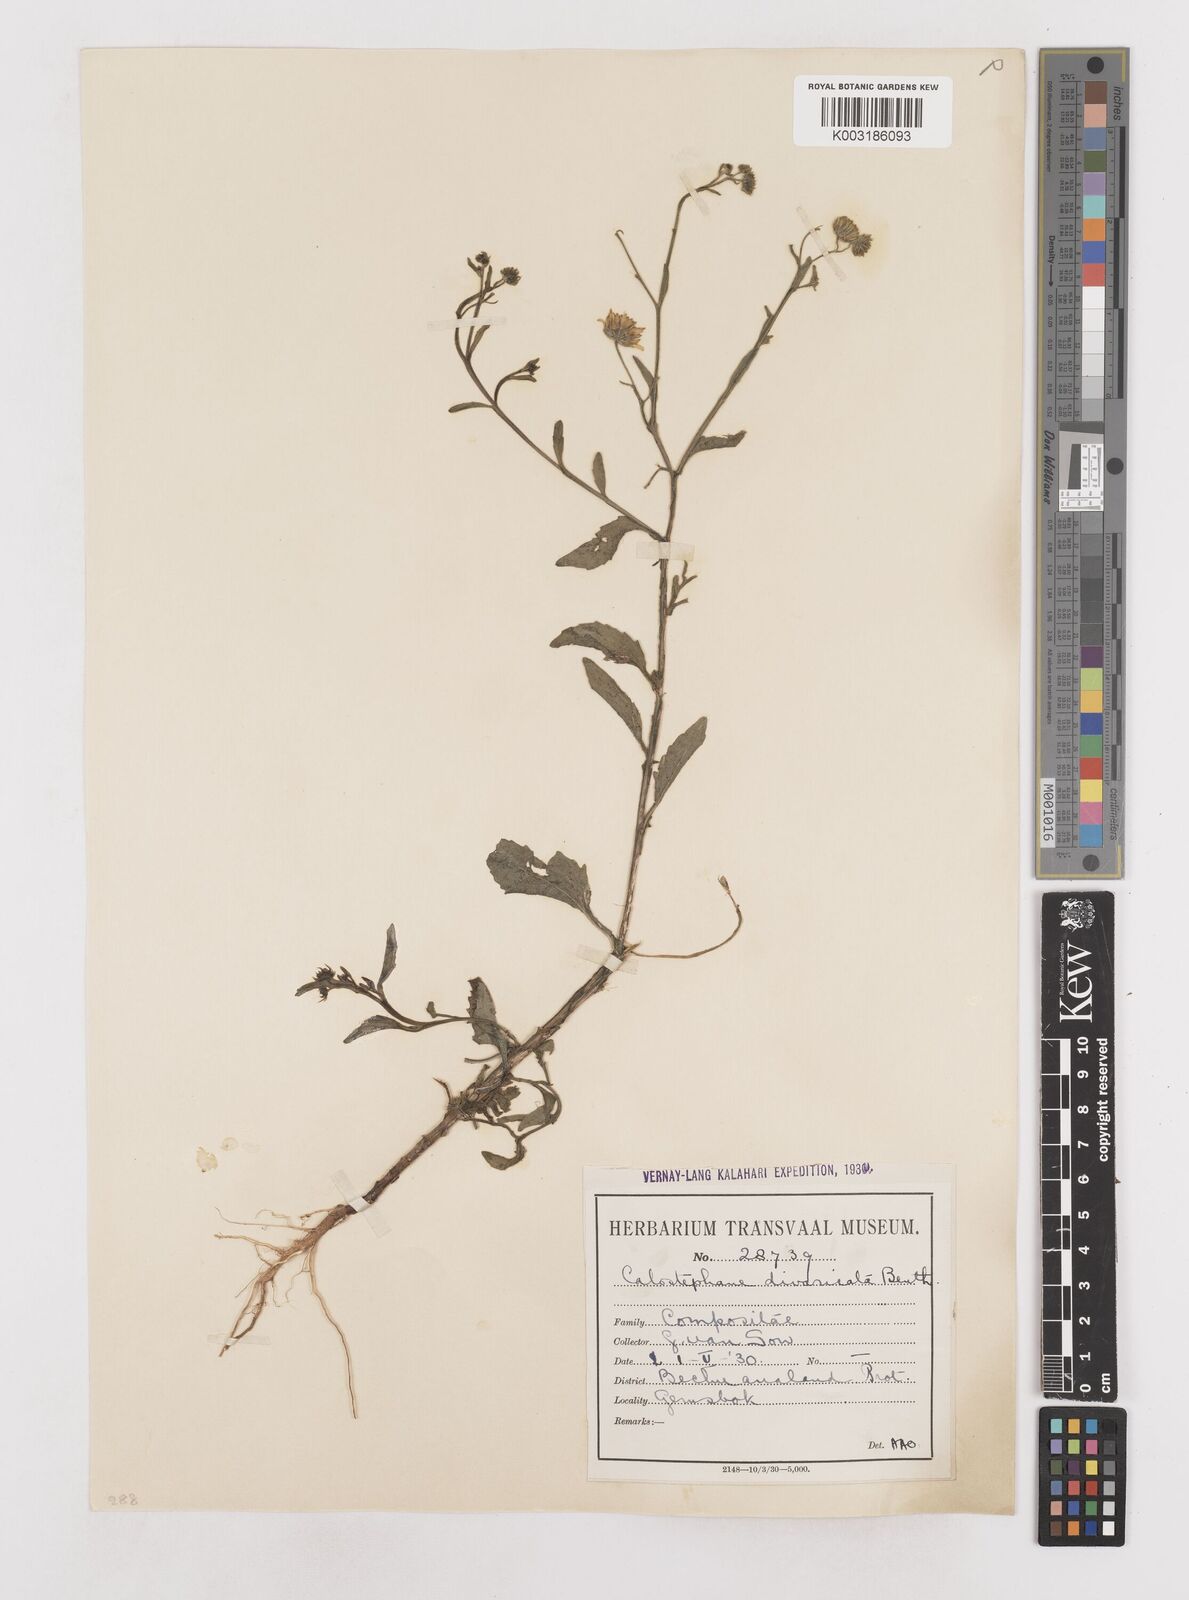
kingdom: Plantae
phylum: Tracheophyta
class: Magnoliopsida
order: Asterales
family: Asteraceae
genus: Calostephane
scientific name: Calostephane divaricata
